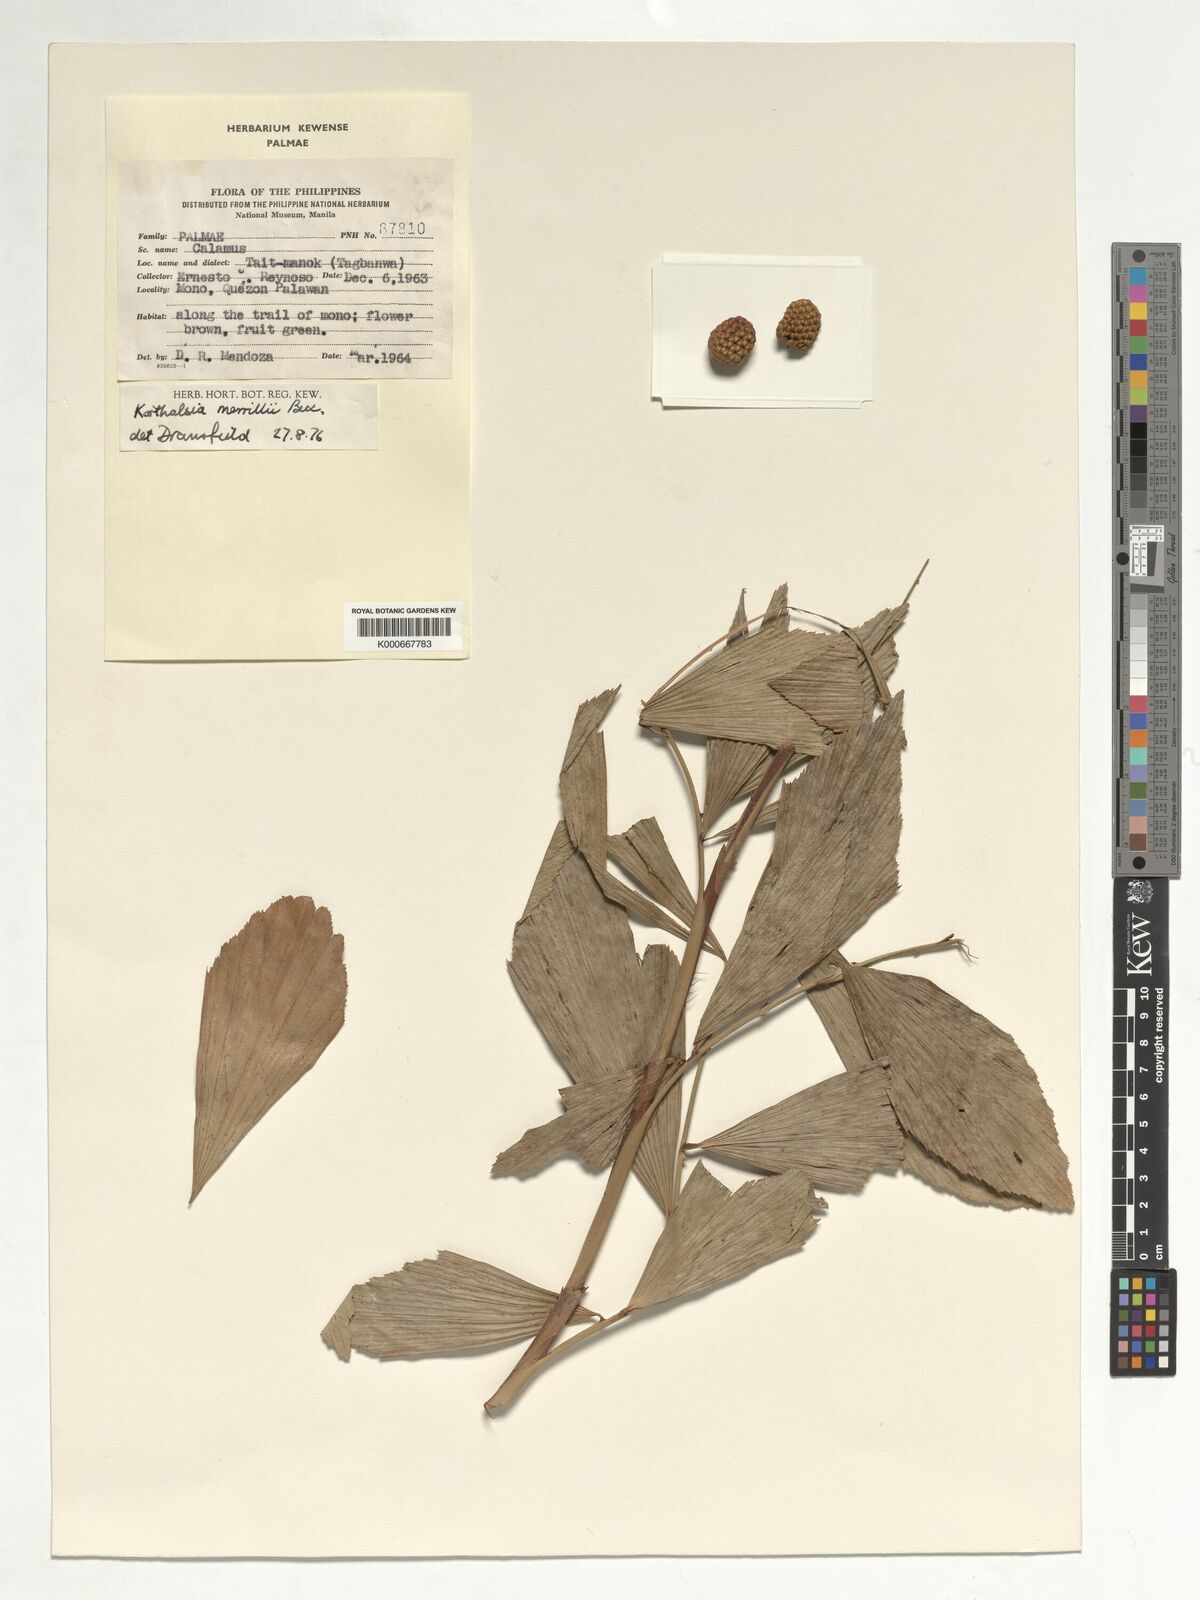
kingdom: Plantae
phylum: Tracheophyta
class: Liliopsida
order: Arecales
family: Arecaceae
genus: Korthalsia
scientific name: Korthalsia merrillii
